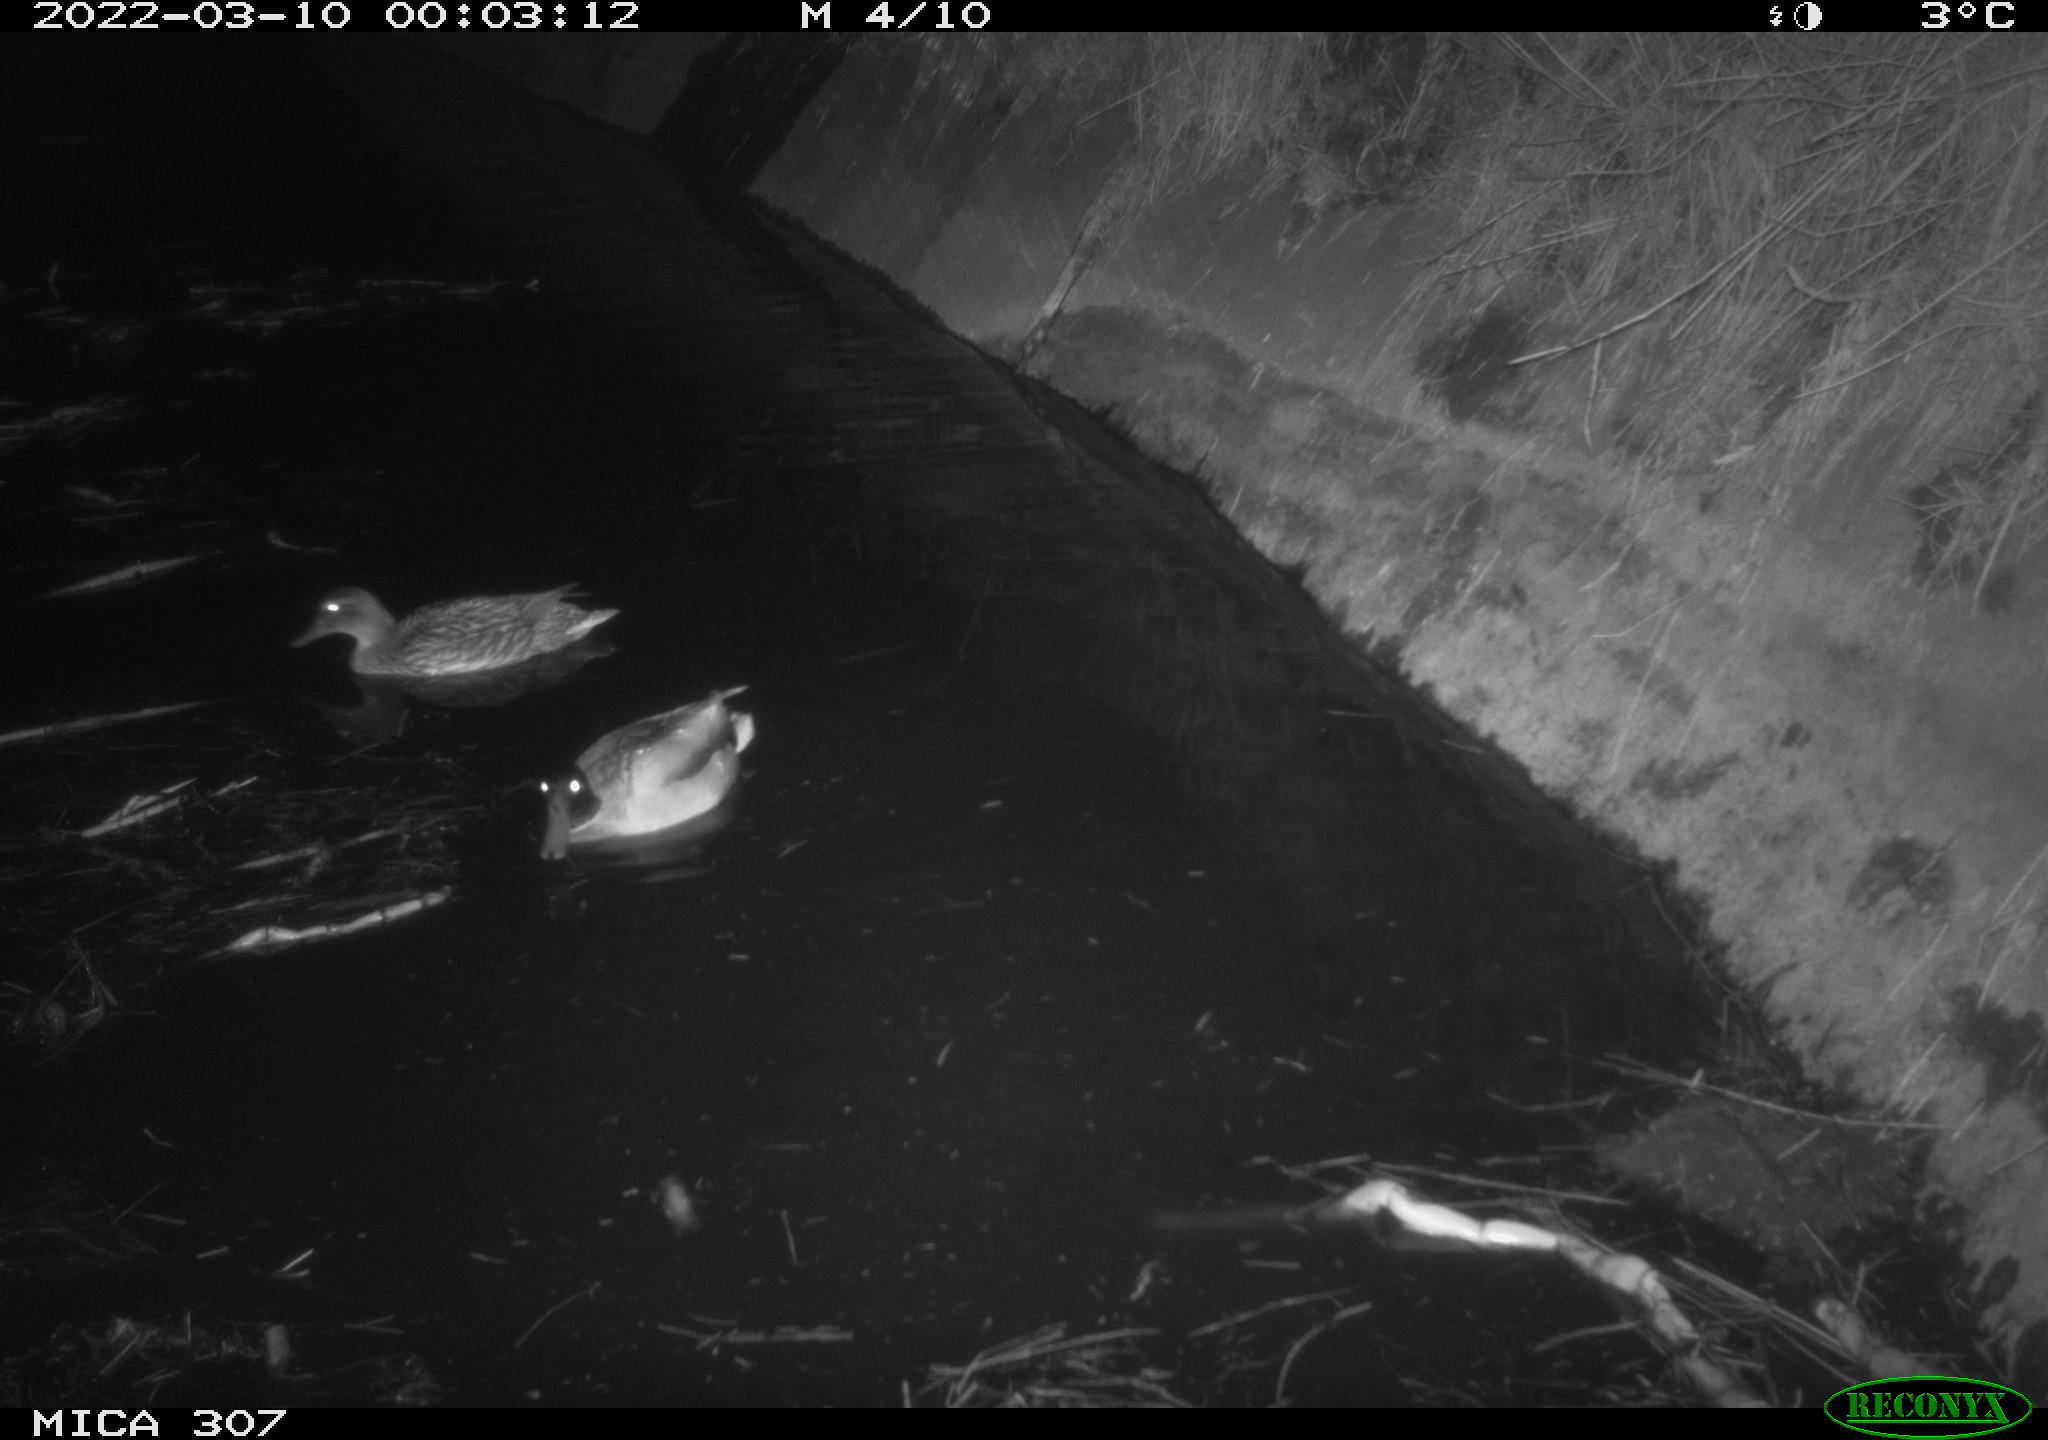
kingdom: Animalia
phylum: Chordata
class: Aves
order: Anseriformes
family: Anatidae
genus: Anas
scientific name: Anas platyrhynchos
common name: Mallard
